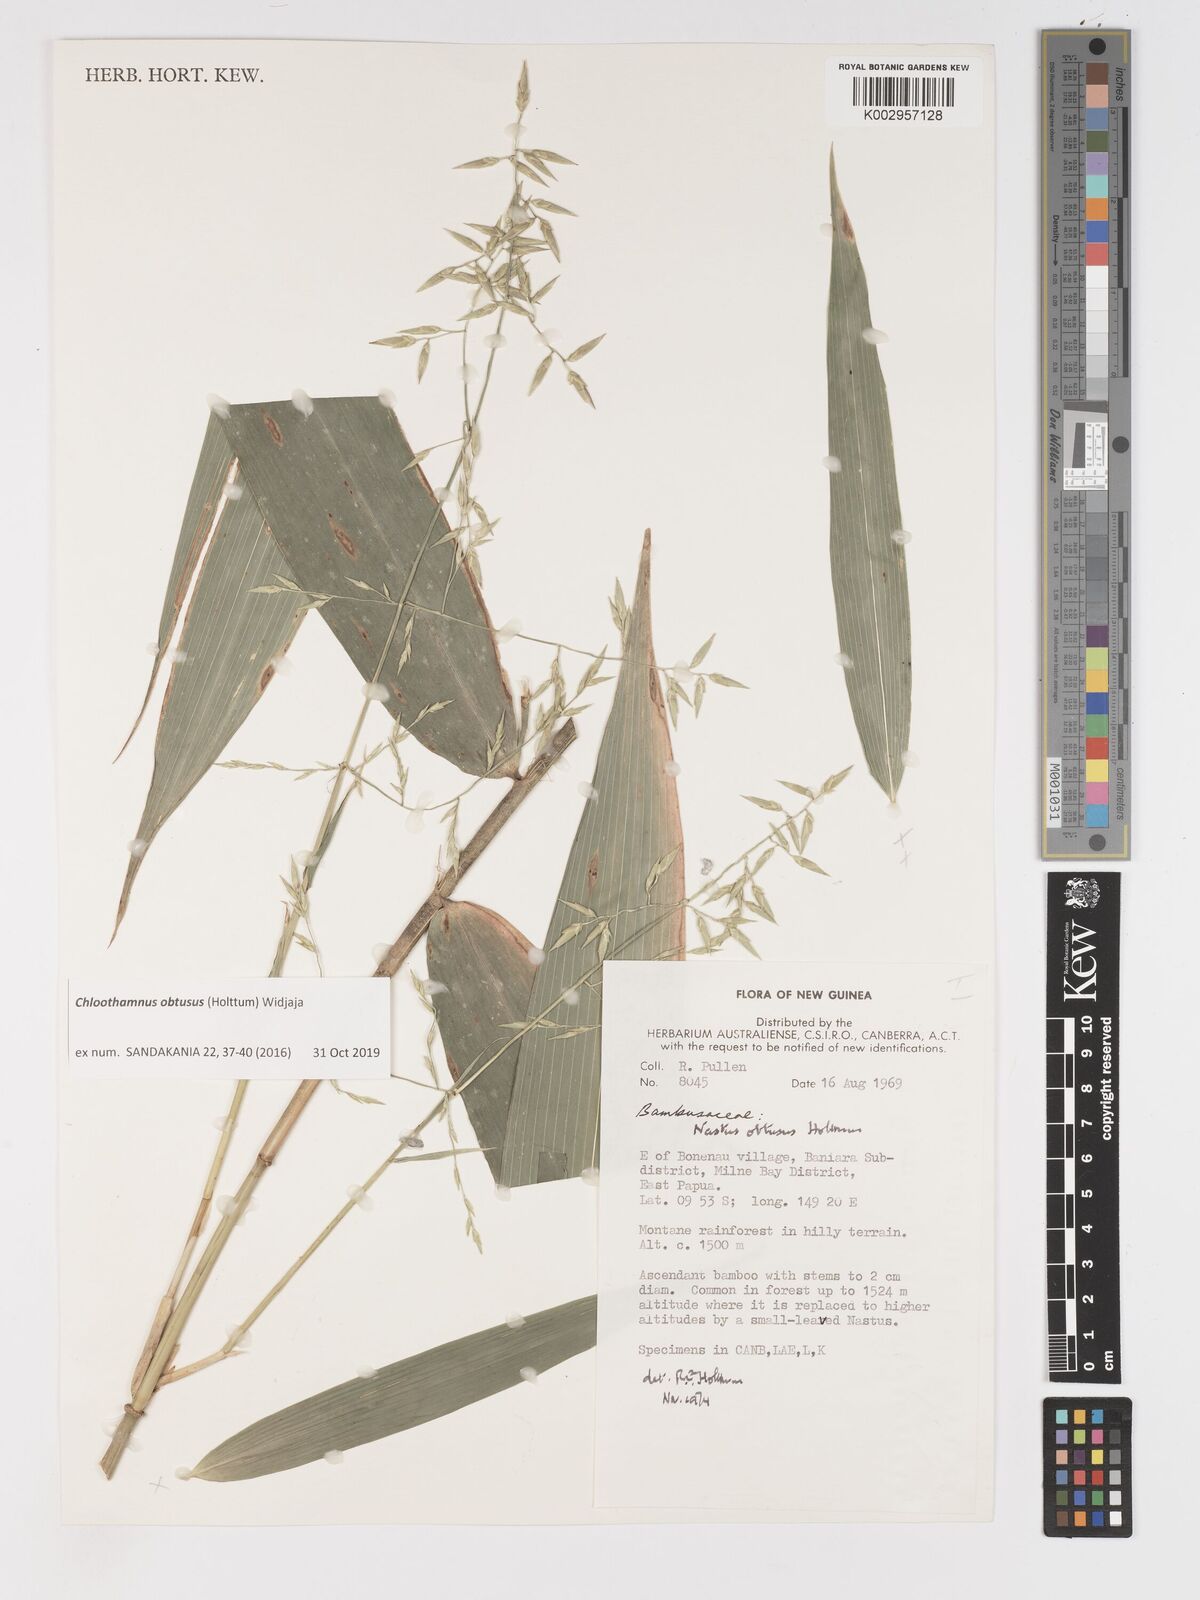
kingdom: Plantae
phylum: Tracheophyta
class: Liliopsida
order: Poales
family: Poaceae
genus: Chloothamnus
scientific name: Chloothamnus obtusus
